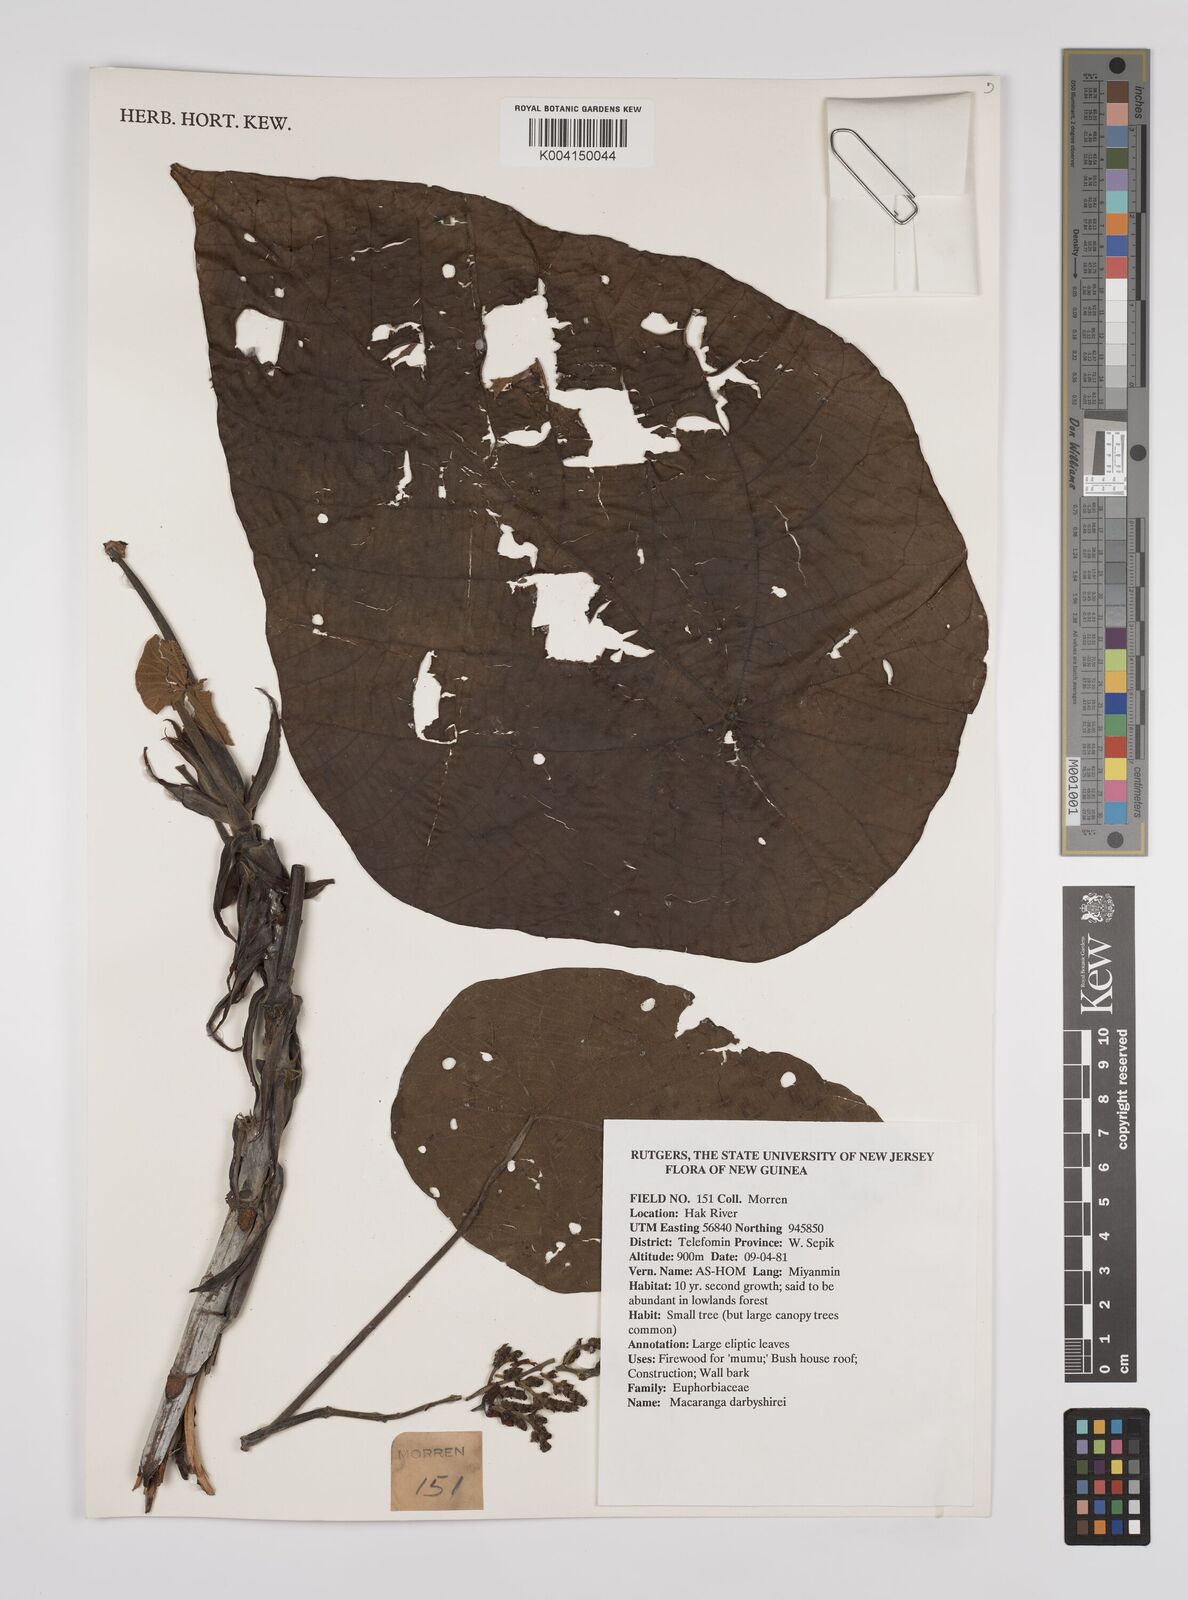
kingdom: Plantae
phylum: Tracheophyta
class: Magnoliopsida
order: Malpighiales
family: Euphorbiaceae
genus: Macaranga
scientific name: Macaranga
